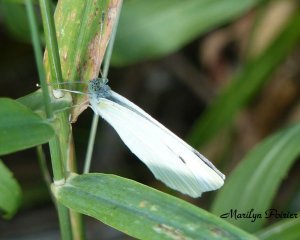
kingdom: Animalia
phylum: Arthropoda
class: Insecta
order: Lepidoptera
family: Pieridae
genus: Pieris
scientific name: Pieris rapae
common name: Cabbage White
